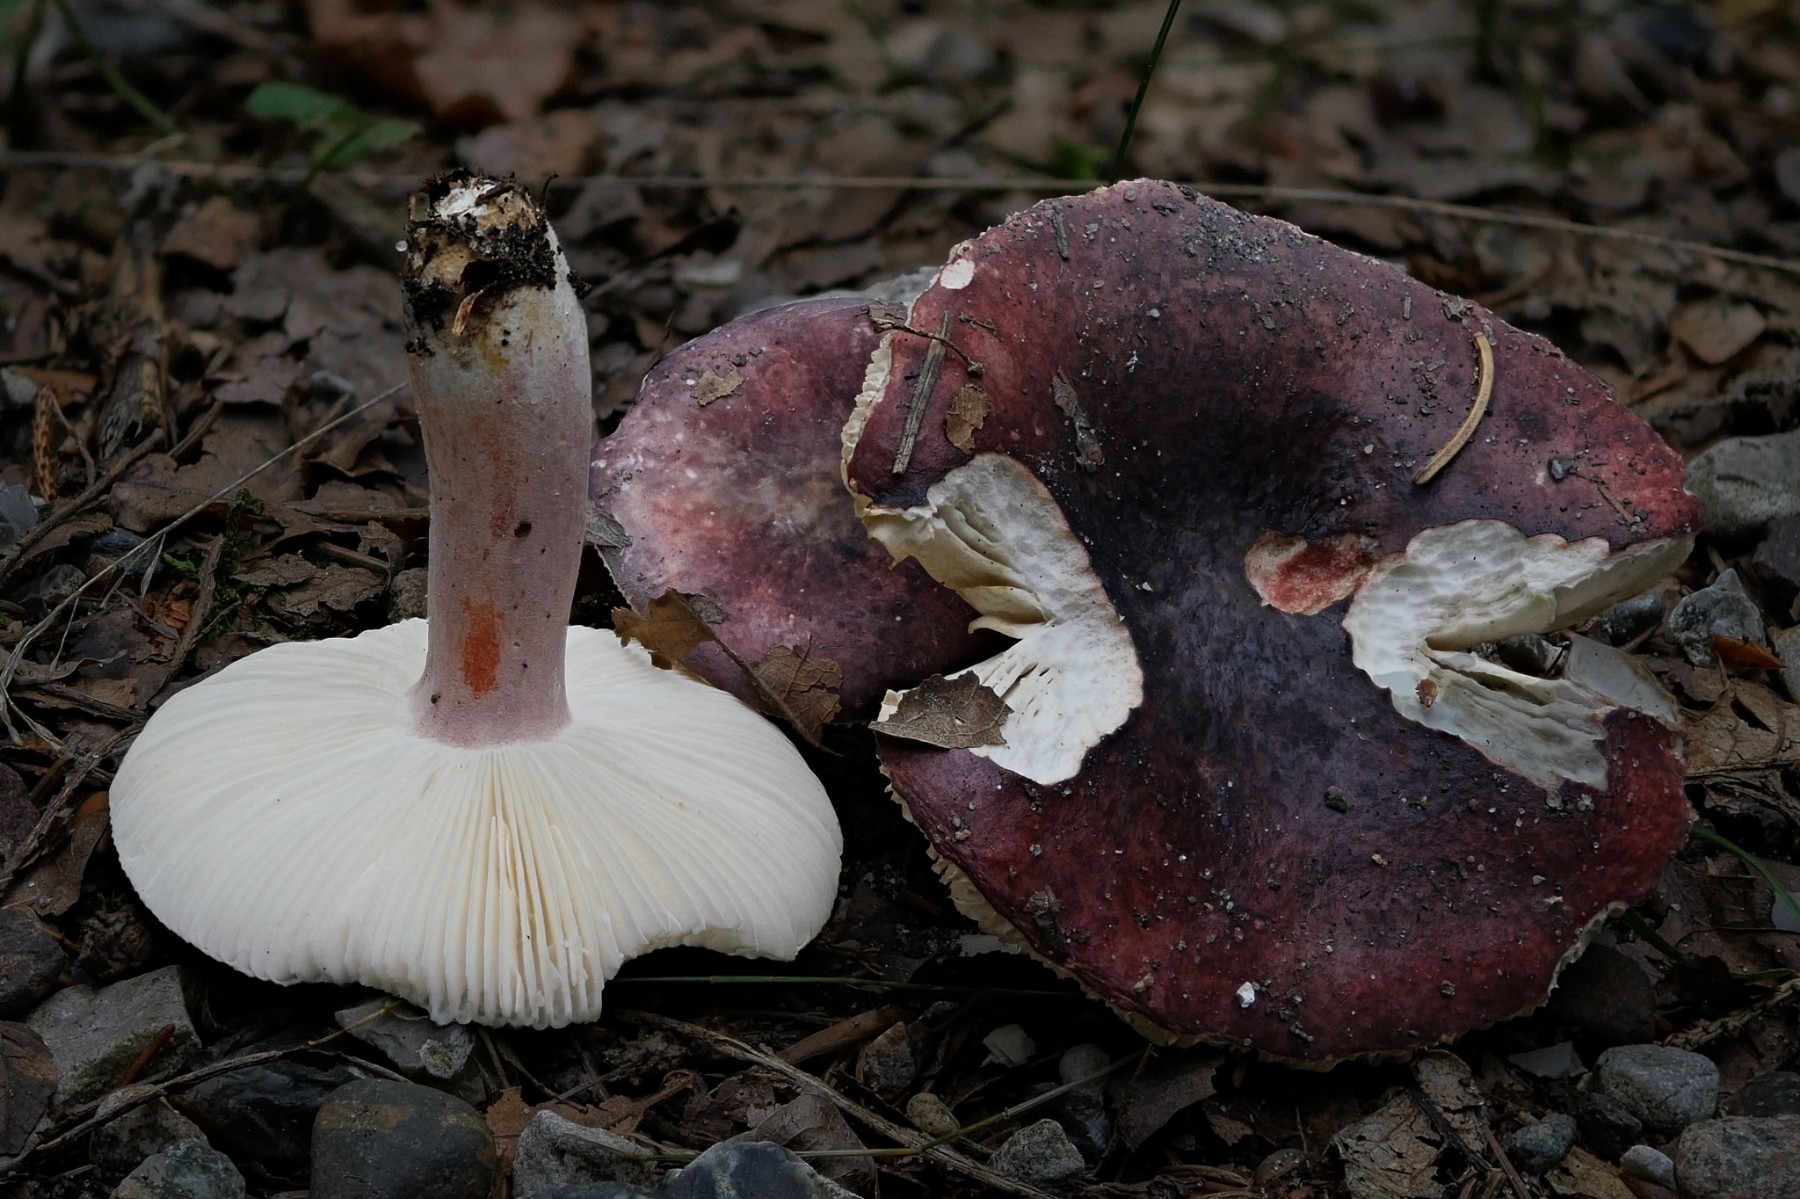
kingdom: Fungi
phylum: Basidiomycota
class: Agaricomycetes
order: Russulales
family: Russulaceae
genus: Russula
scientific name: Russula queletii
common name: Quélets skørhat
